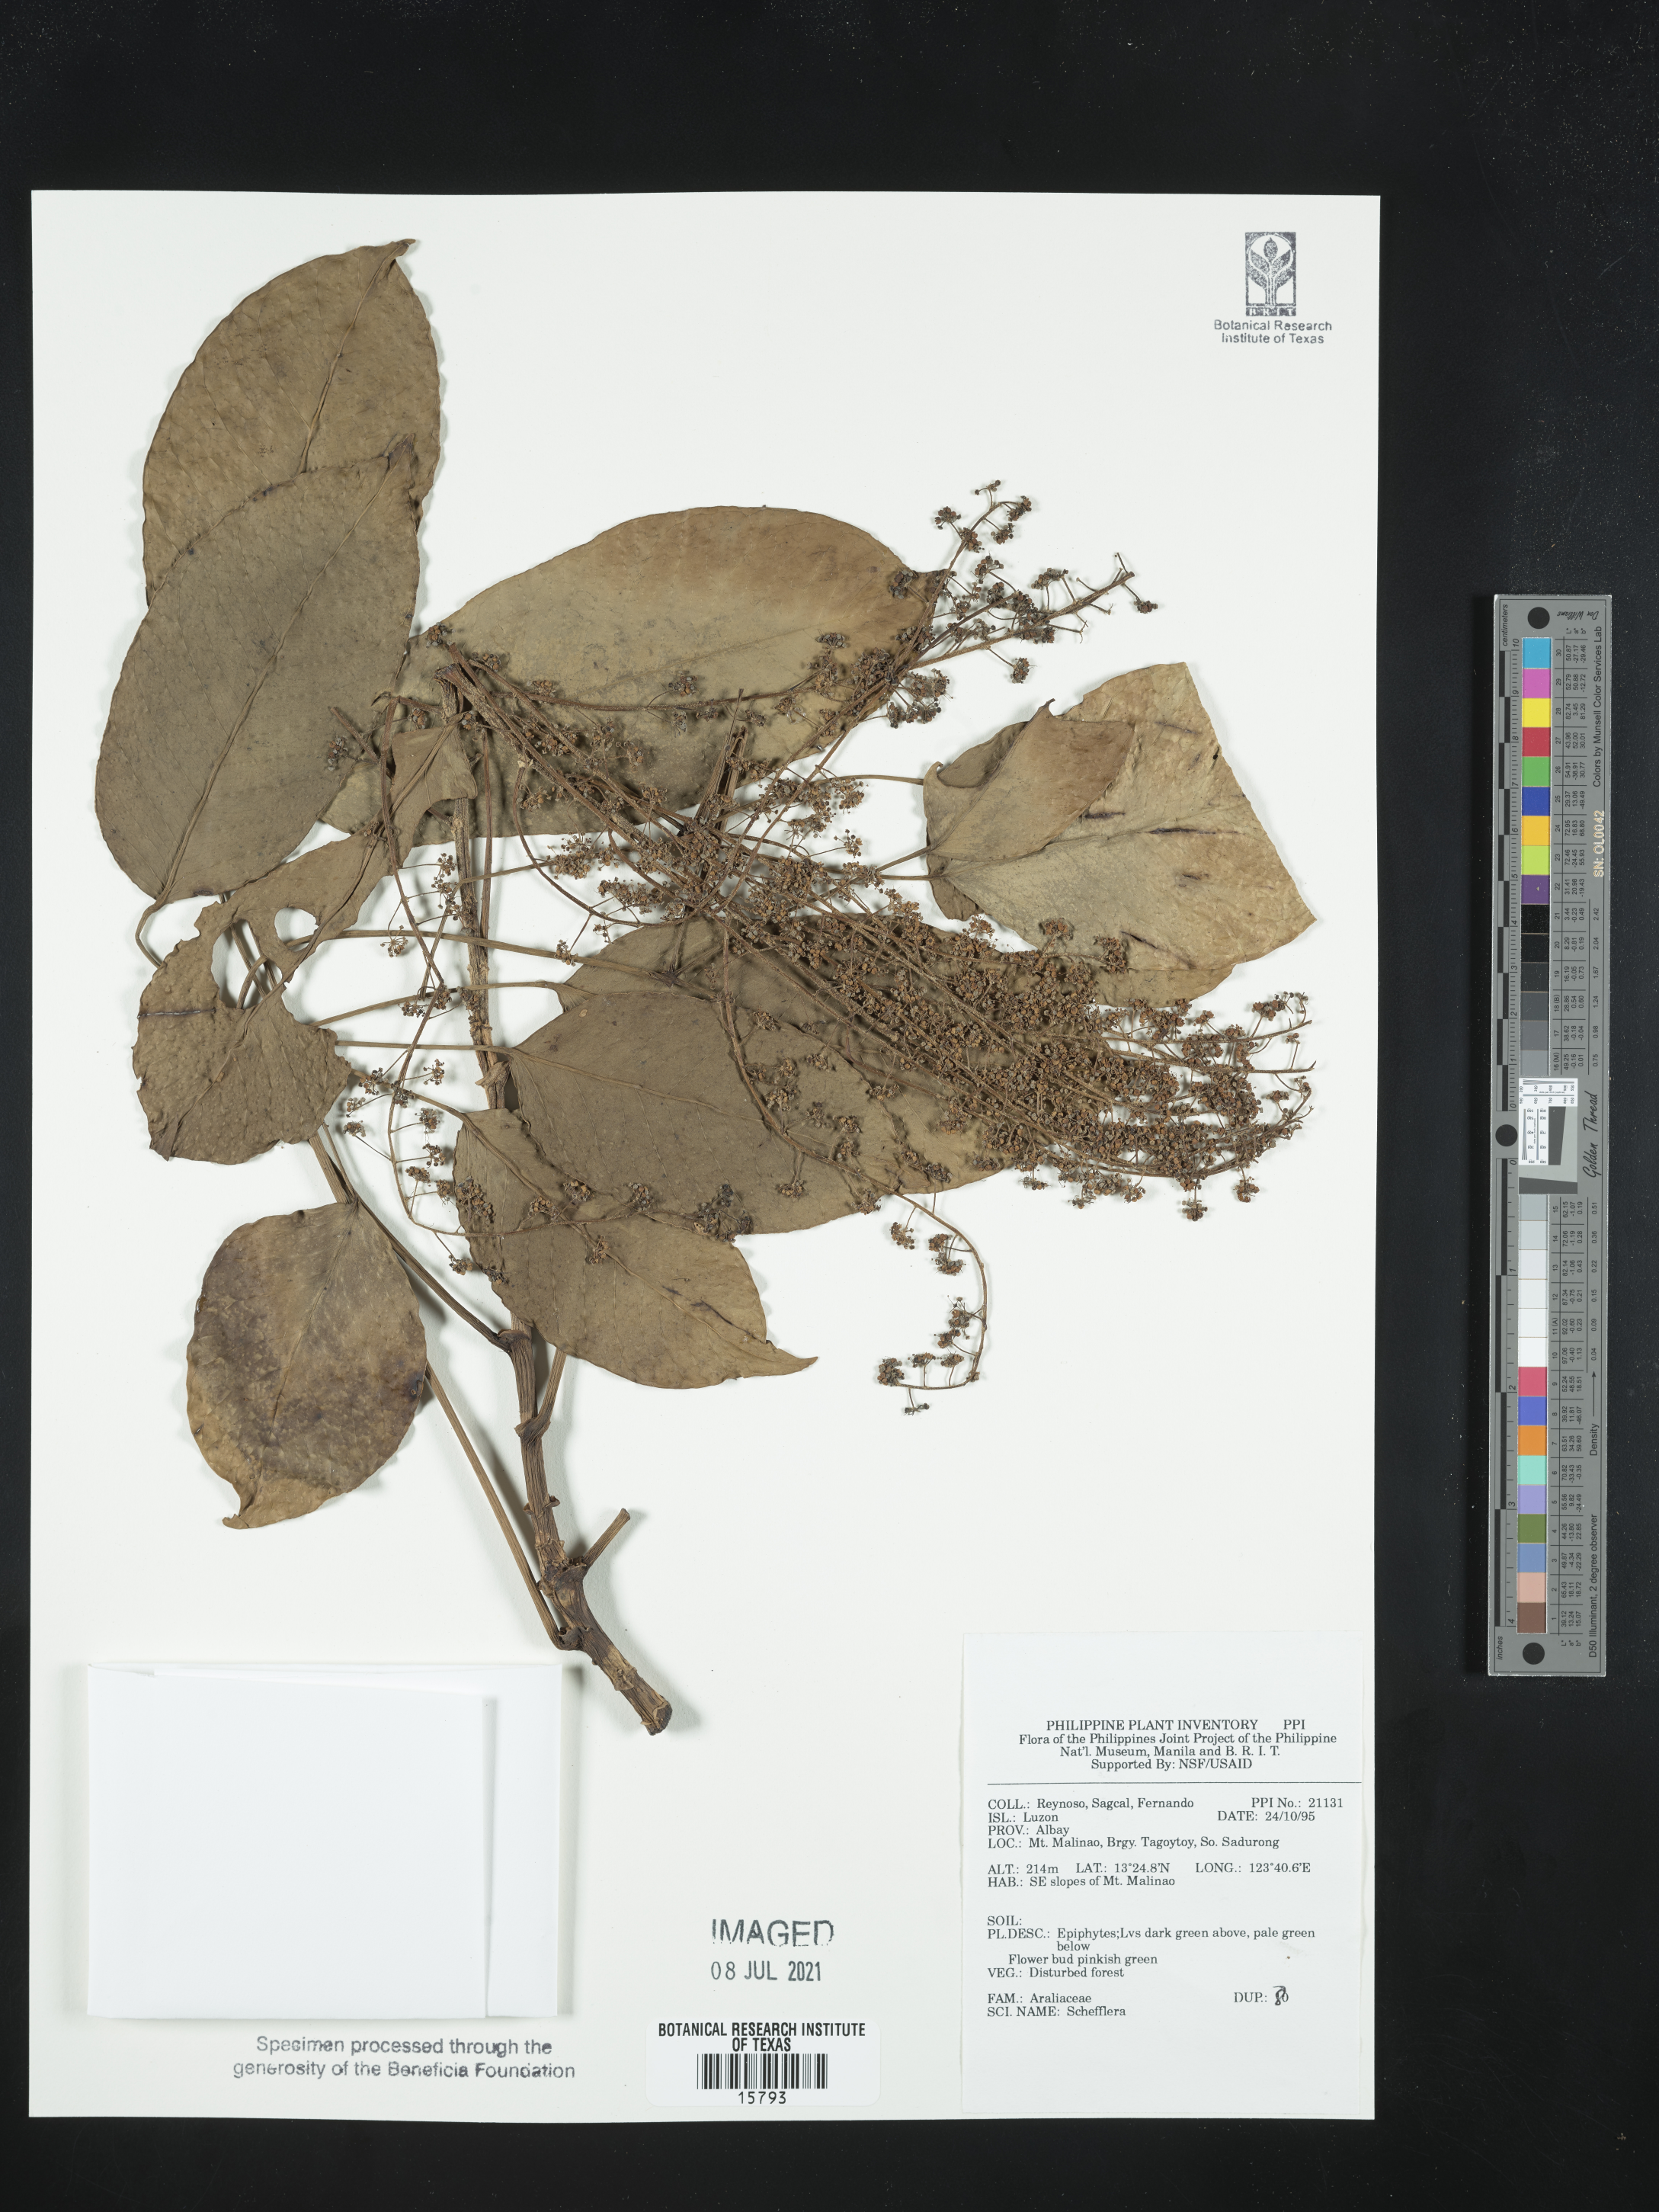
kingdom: Plantae
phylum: Tracheophyta
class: Magnoliopsida
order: Apiales
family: Araliaceae
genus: Schefflera
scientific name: Schefflera
